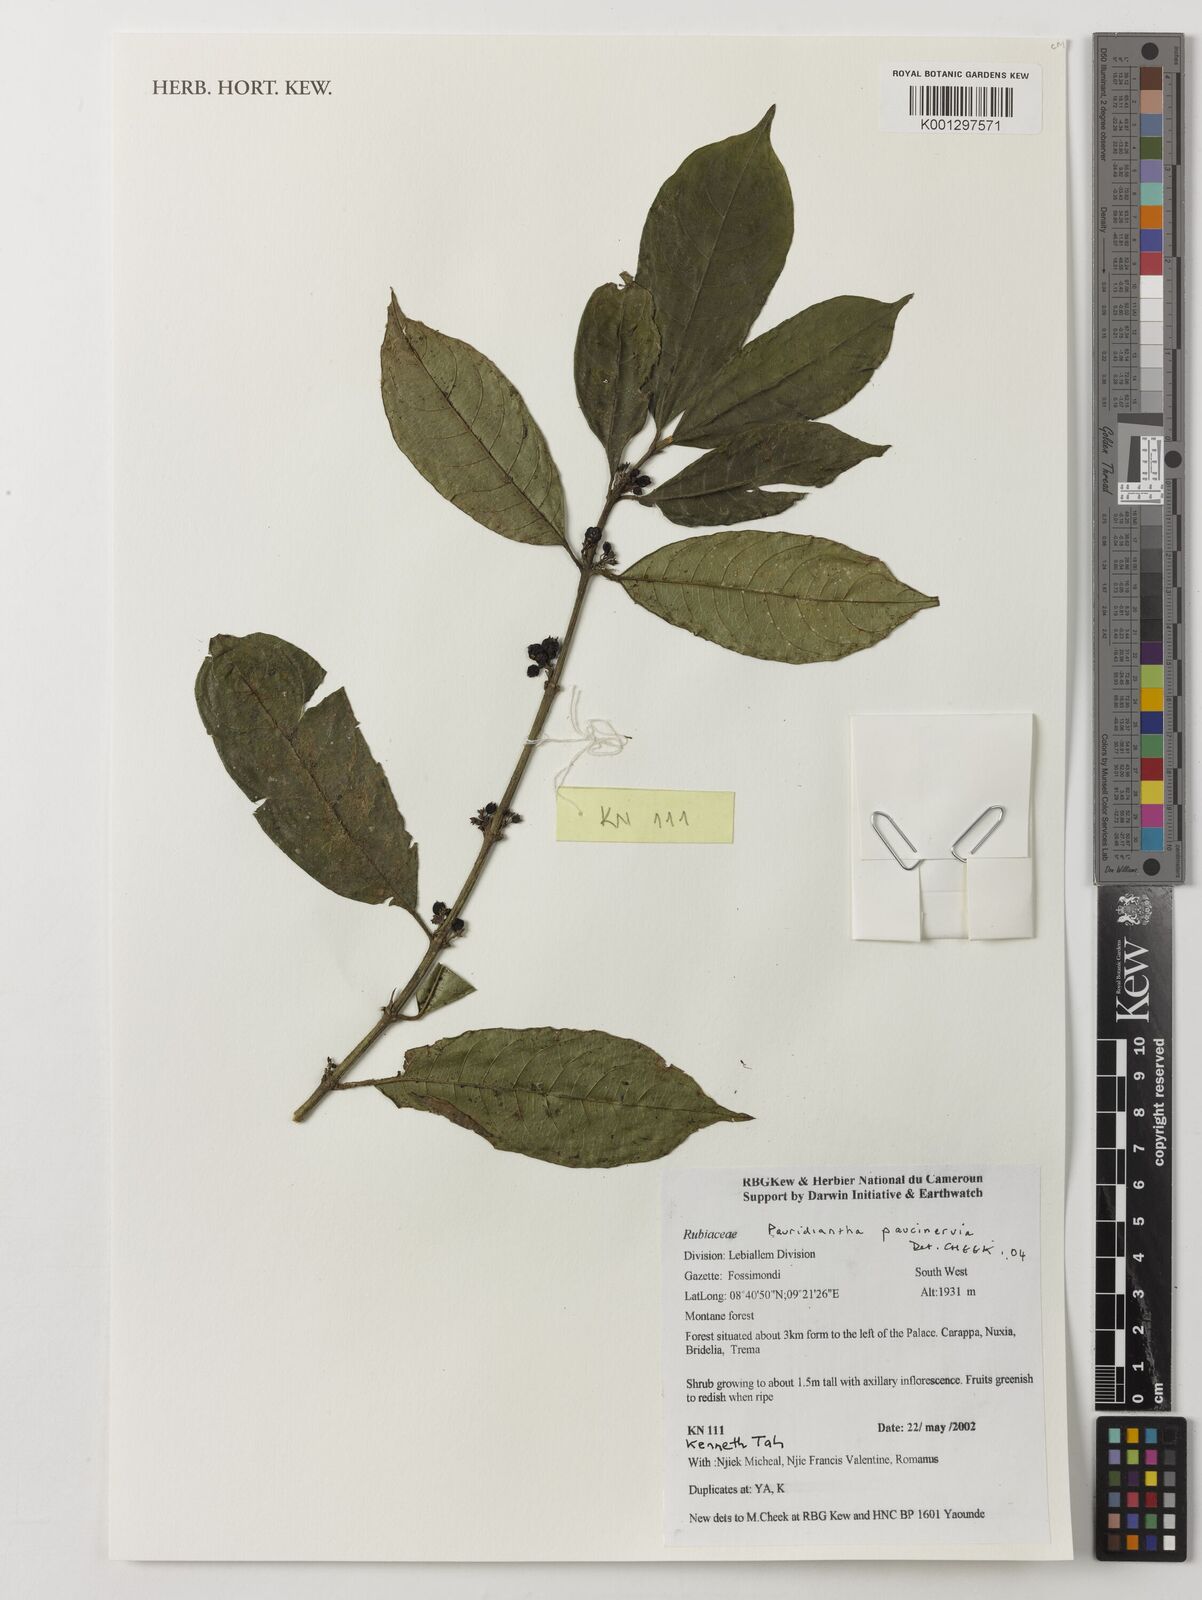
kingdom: Plantae
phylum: Tracheophyta
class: Magnoliopsida
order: Gentianales
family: Rubiaceae
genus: Pauridiantha
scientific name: Pauridiantha paucinervis
